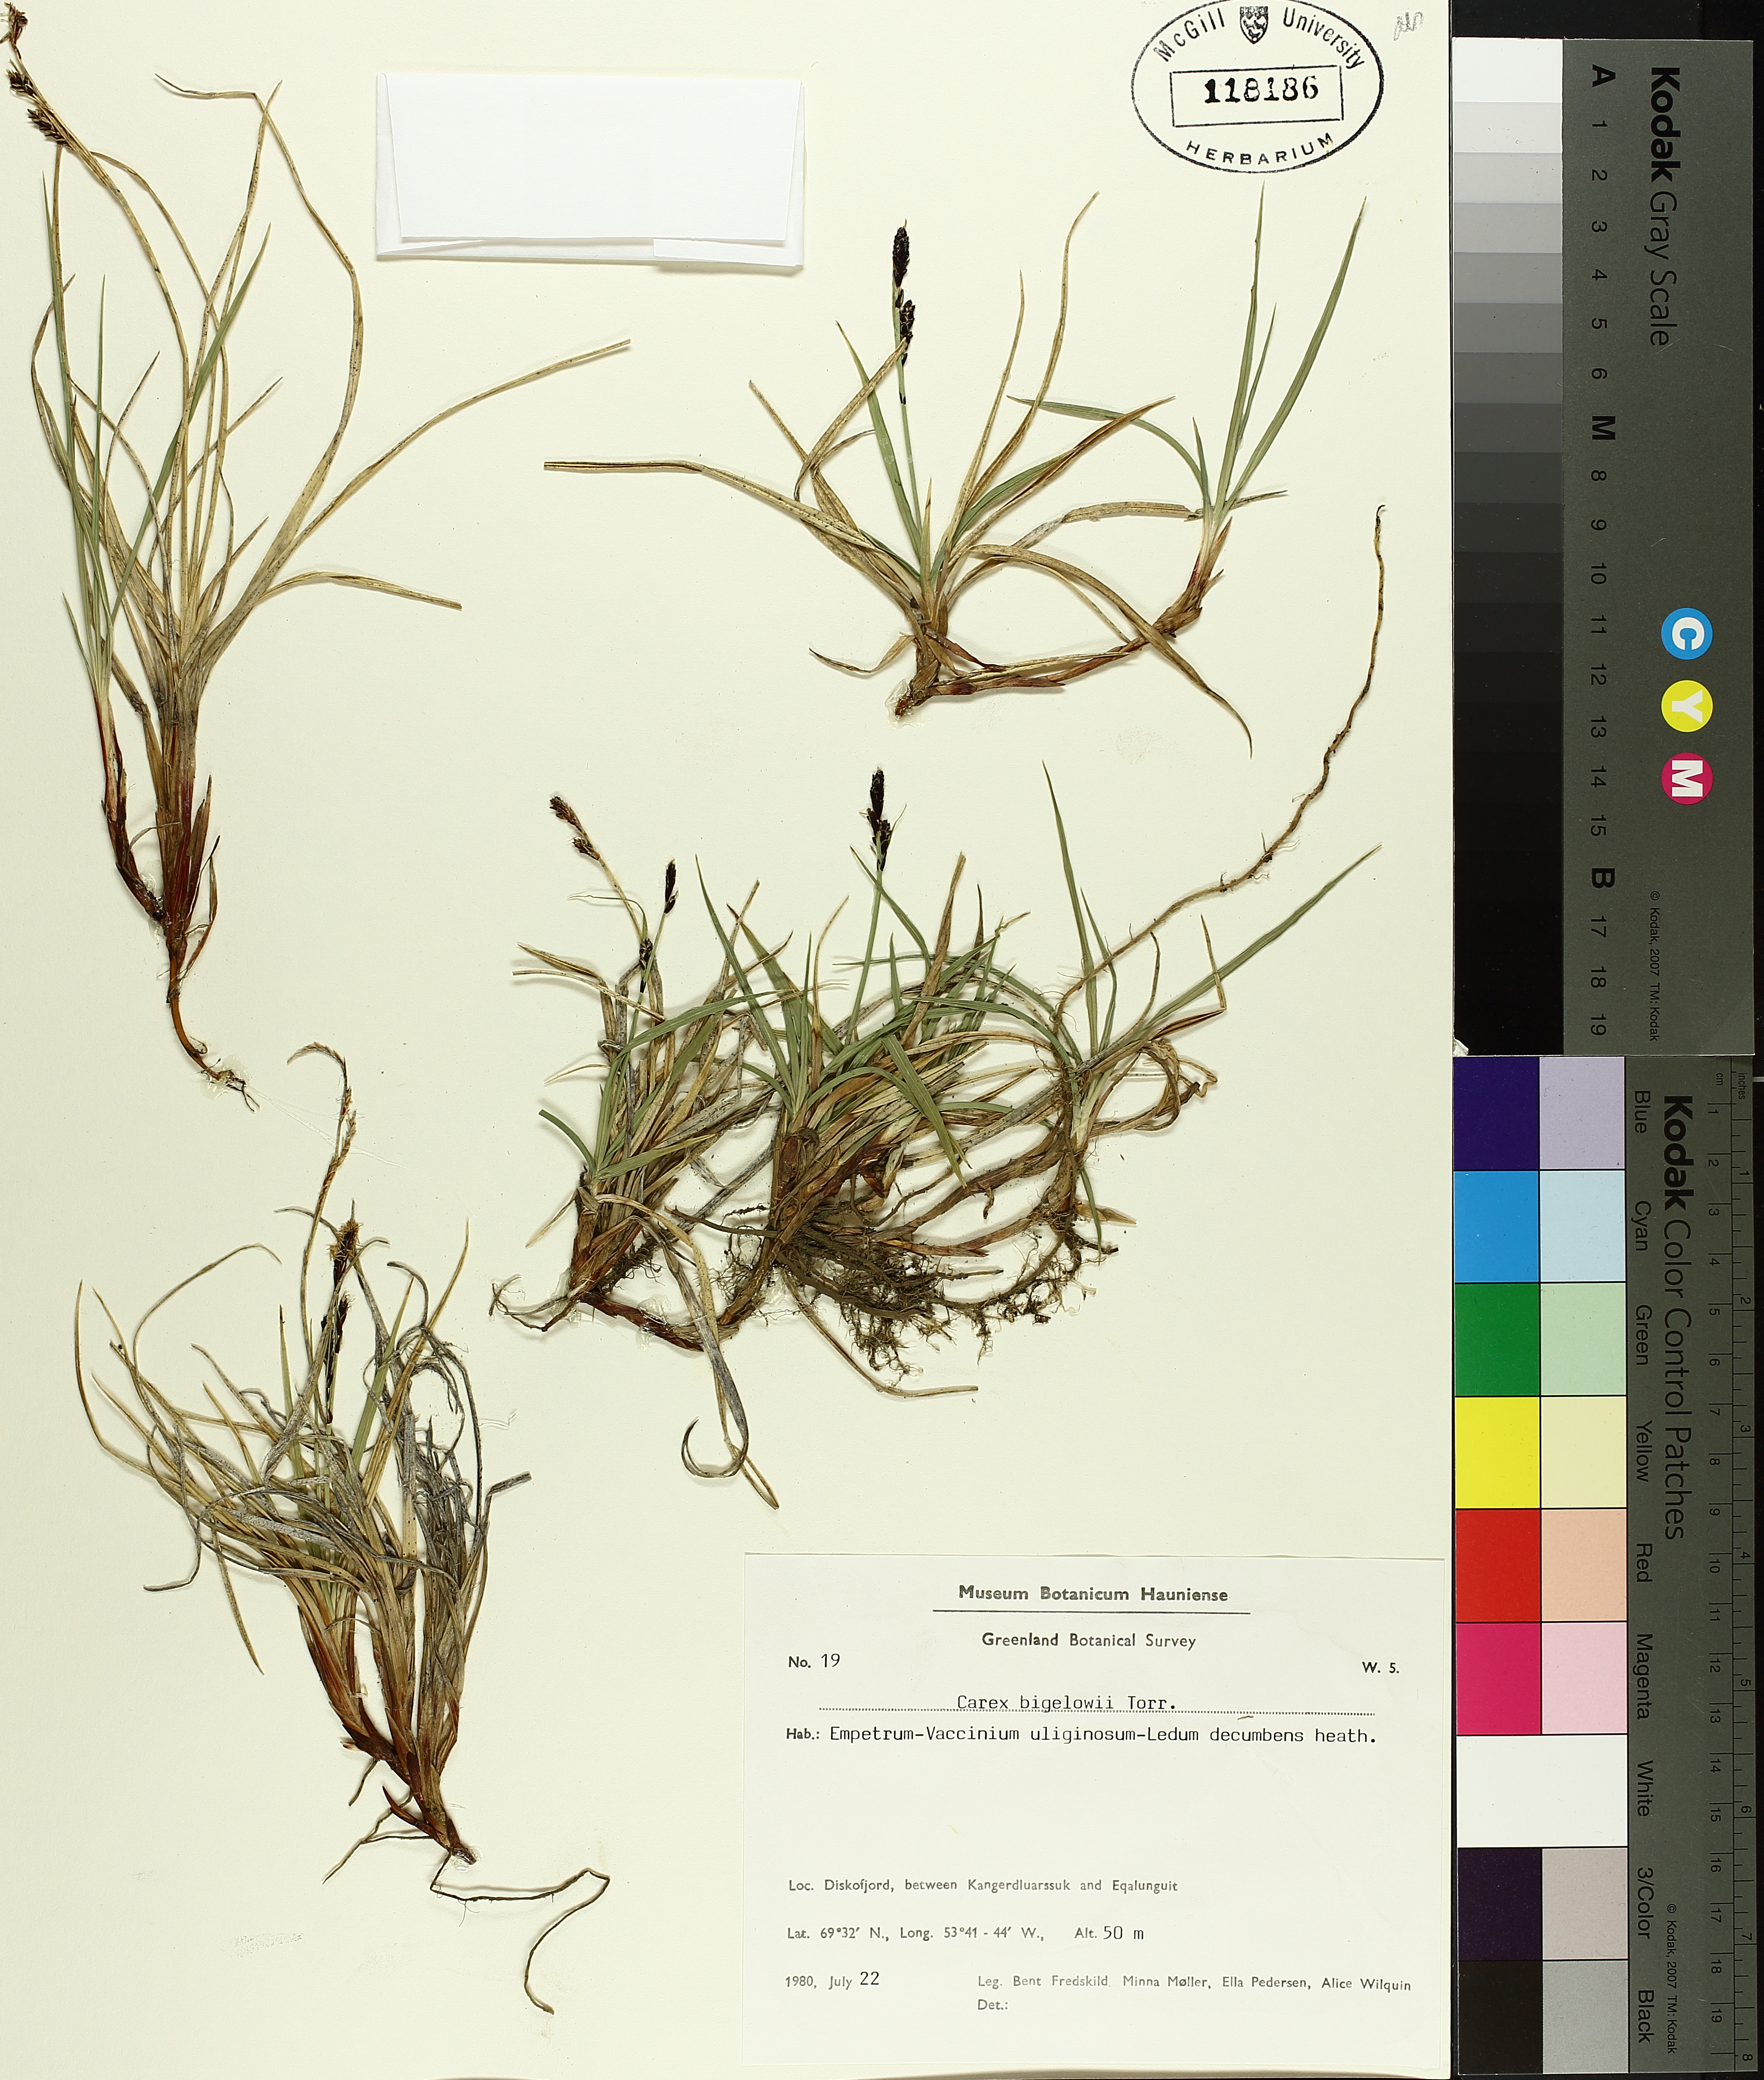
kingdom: Plantae
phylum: Tracheophyta
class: Liliopsida
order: Poales
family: Cyperaceae
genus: Carex
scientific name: Carex bigelowii
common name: Stiff sedge
